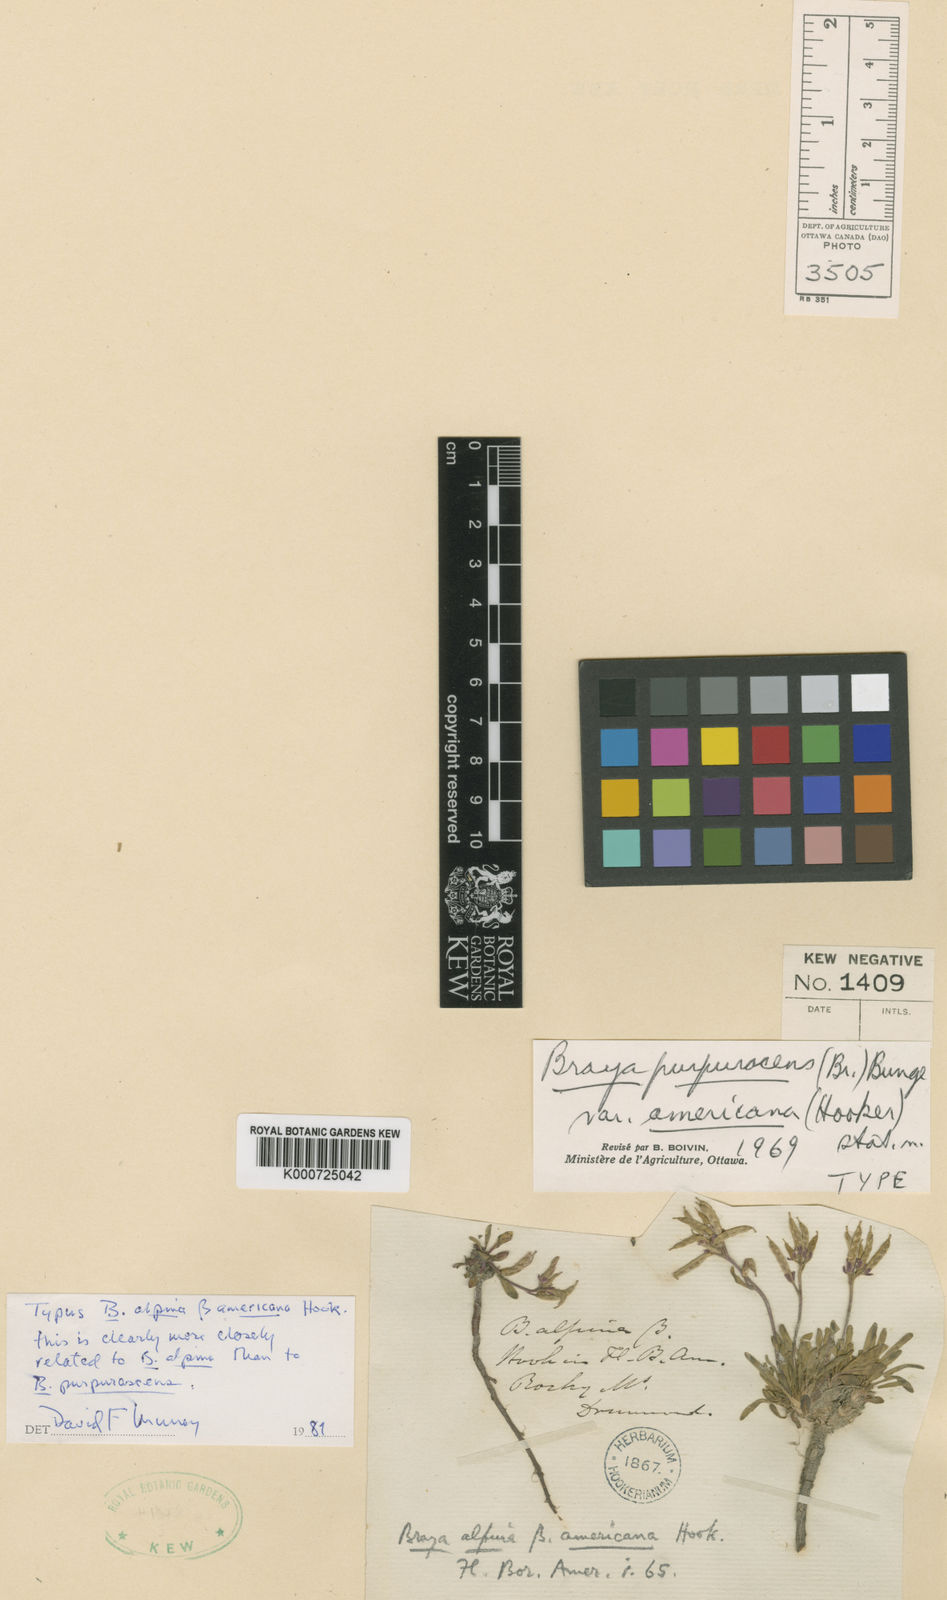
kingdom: Plantae
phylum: Tracheophyta
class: Magnoliopsida
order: Brassicales
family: Brassicaceae
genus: Braya
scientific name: Braya glabella
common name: Smooth braya
